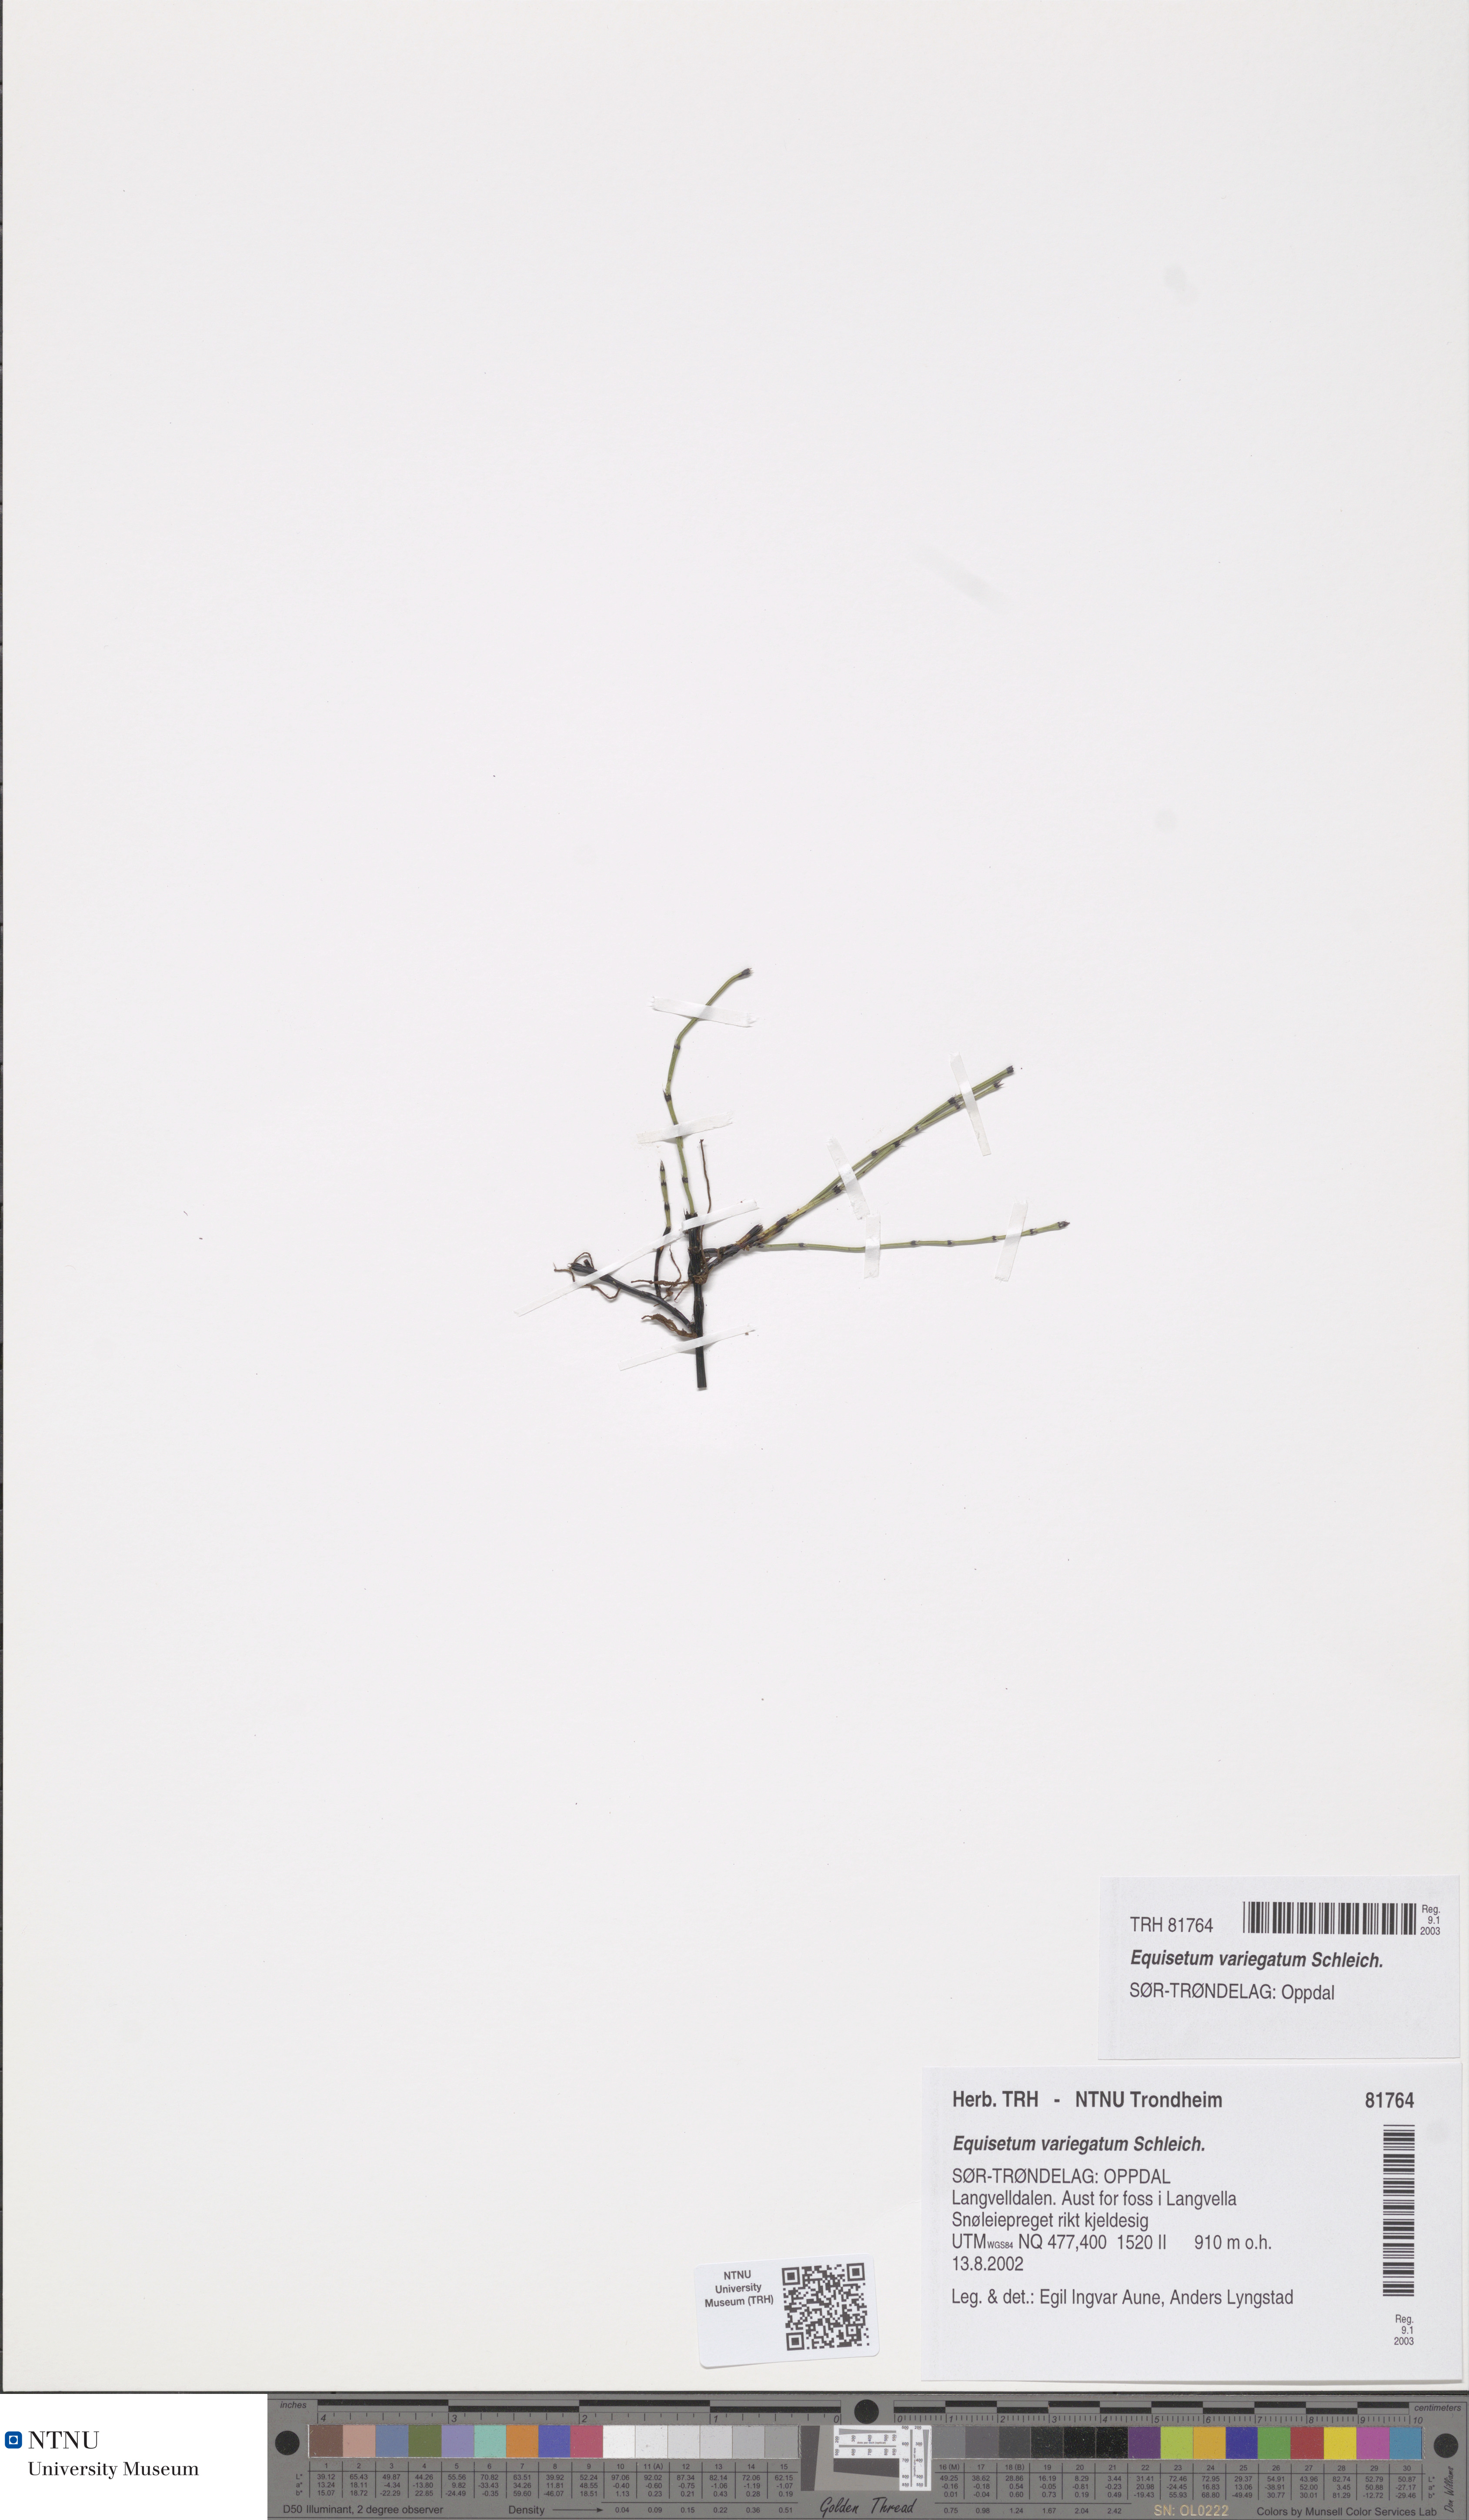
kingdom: Plantae
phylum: Tracheophyta
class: Polypodiopsida
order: Equisetales
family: Equisetaceae
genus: Equisetum
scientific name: Equisetum variegatum
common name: Variegated horsetail
